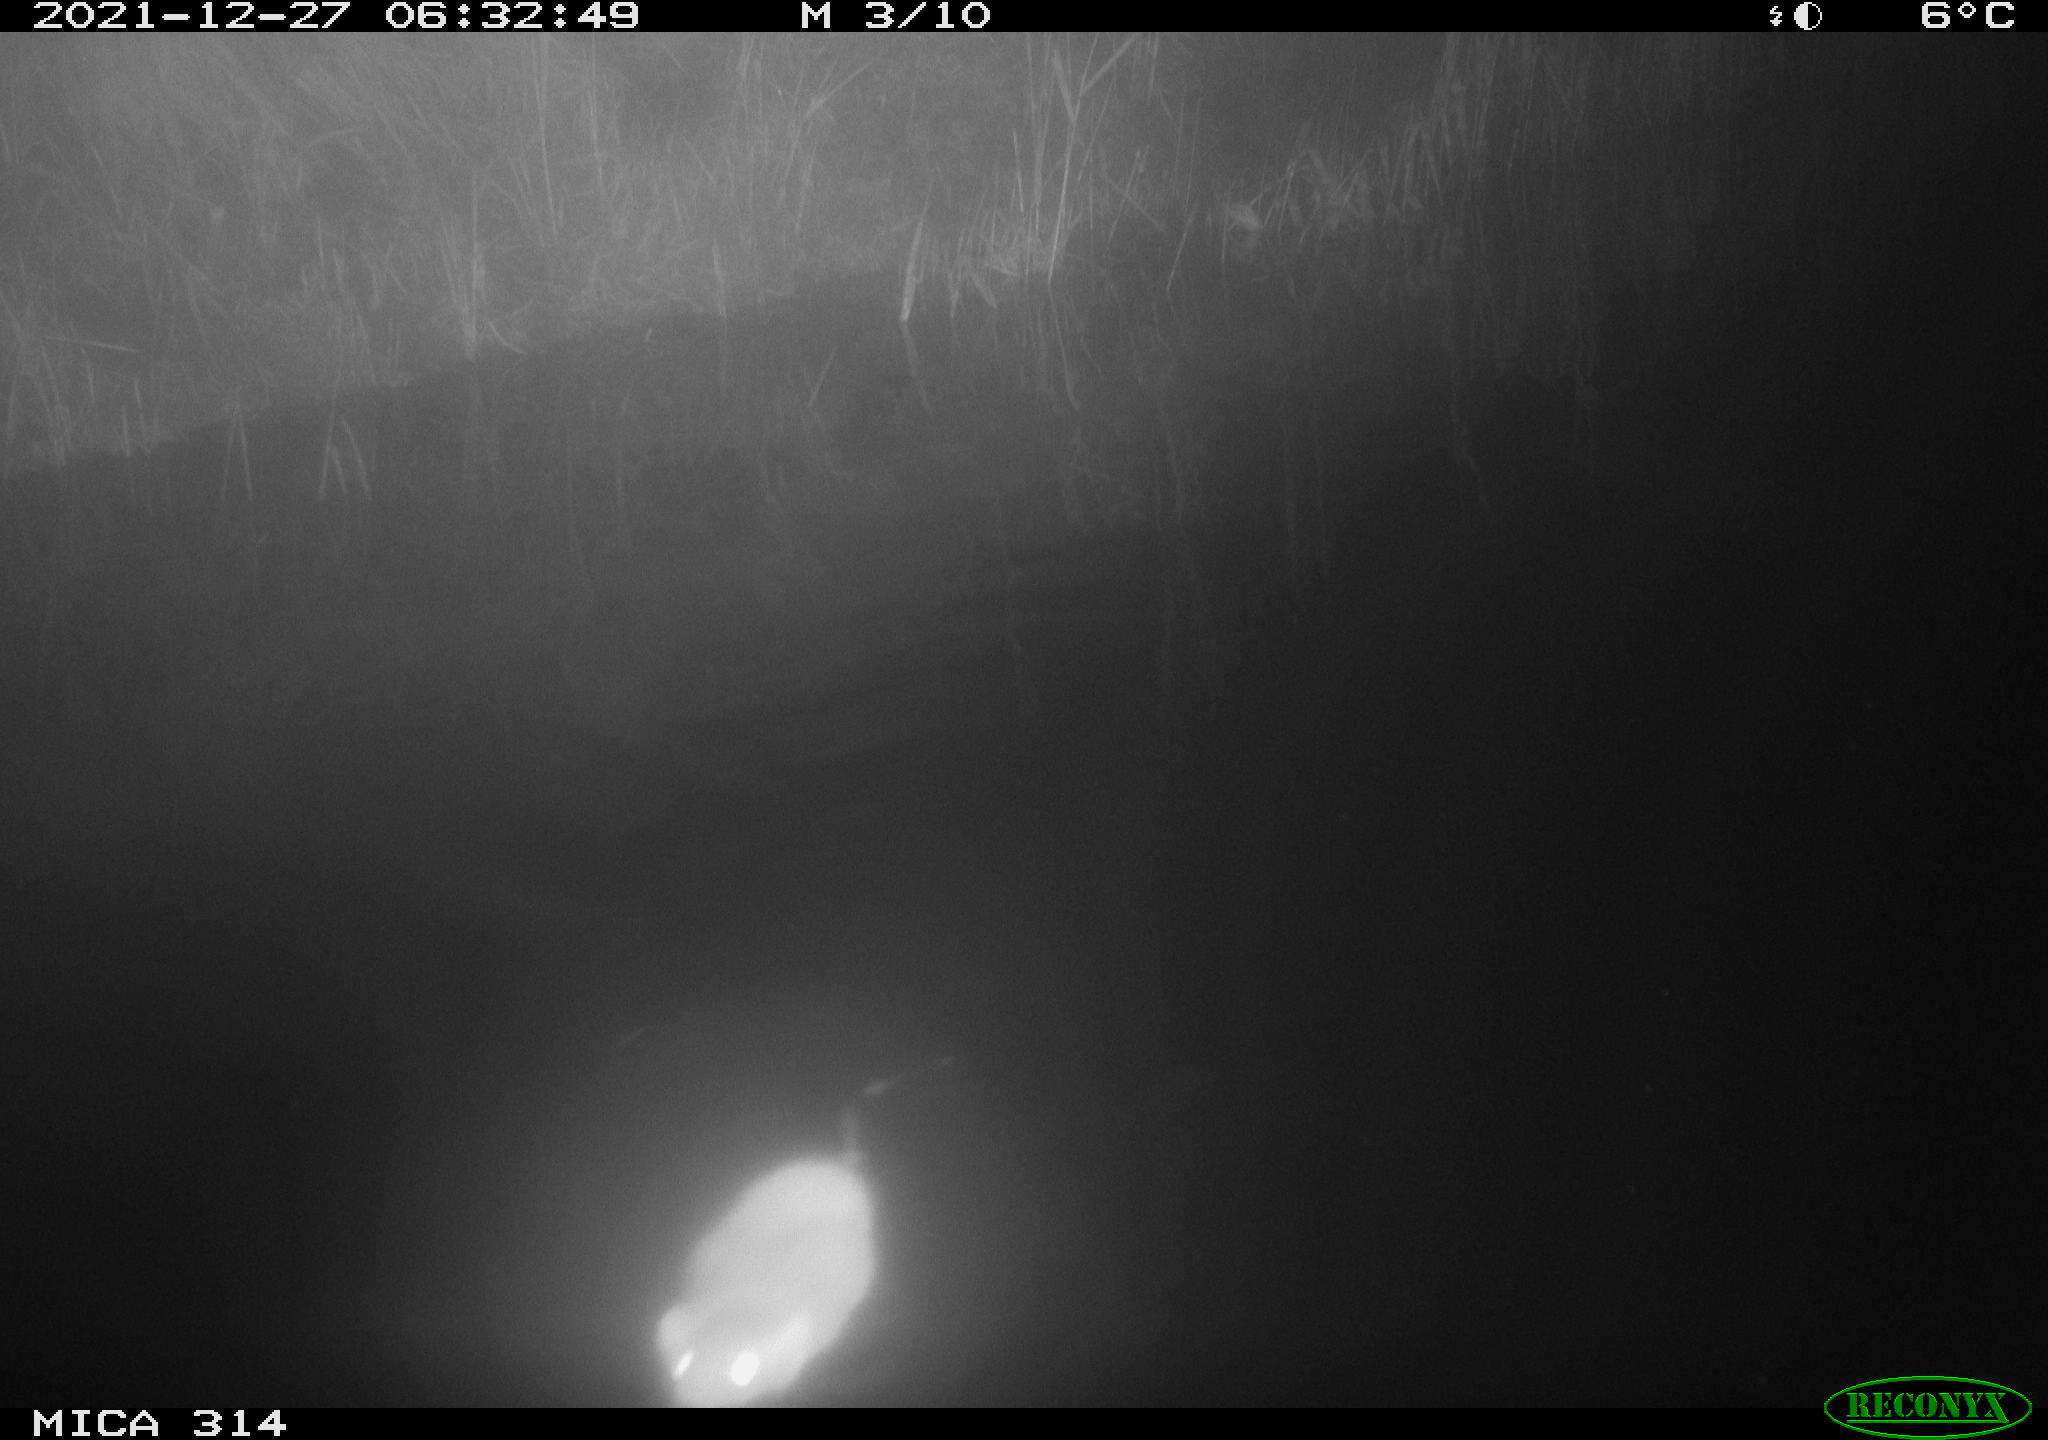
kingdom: Animalia
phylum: Chordata
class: Mammalia
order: Rodentia
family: Muridae
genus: Rattus
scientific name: Rattus norvegicus
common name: Brown rat
